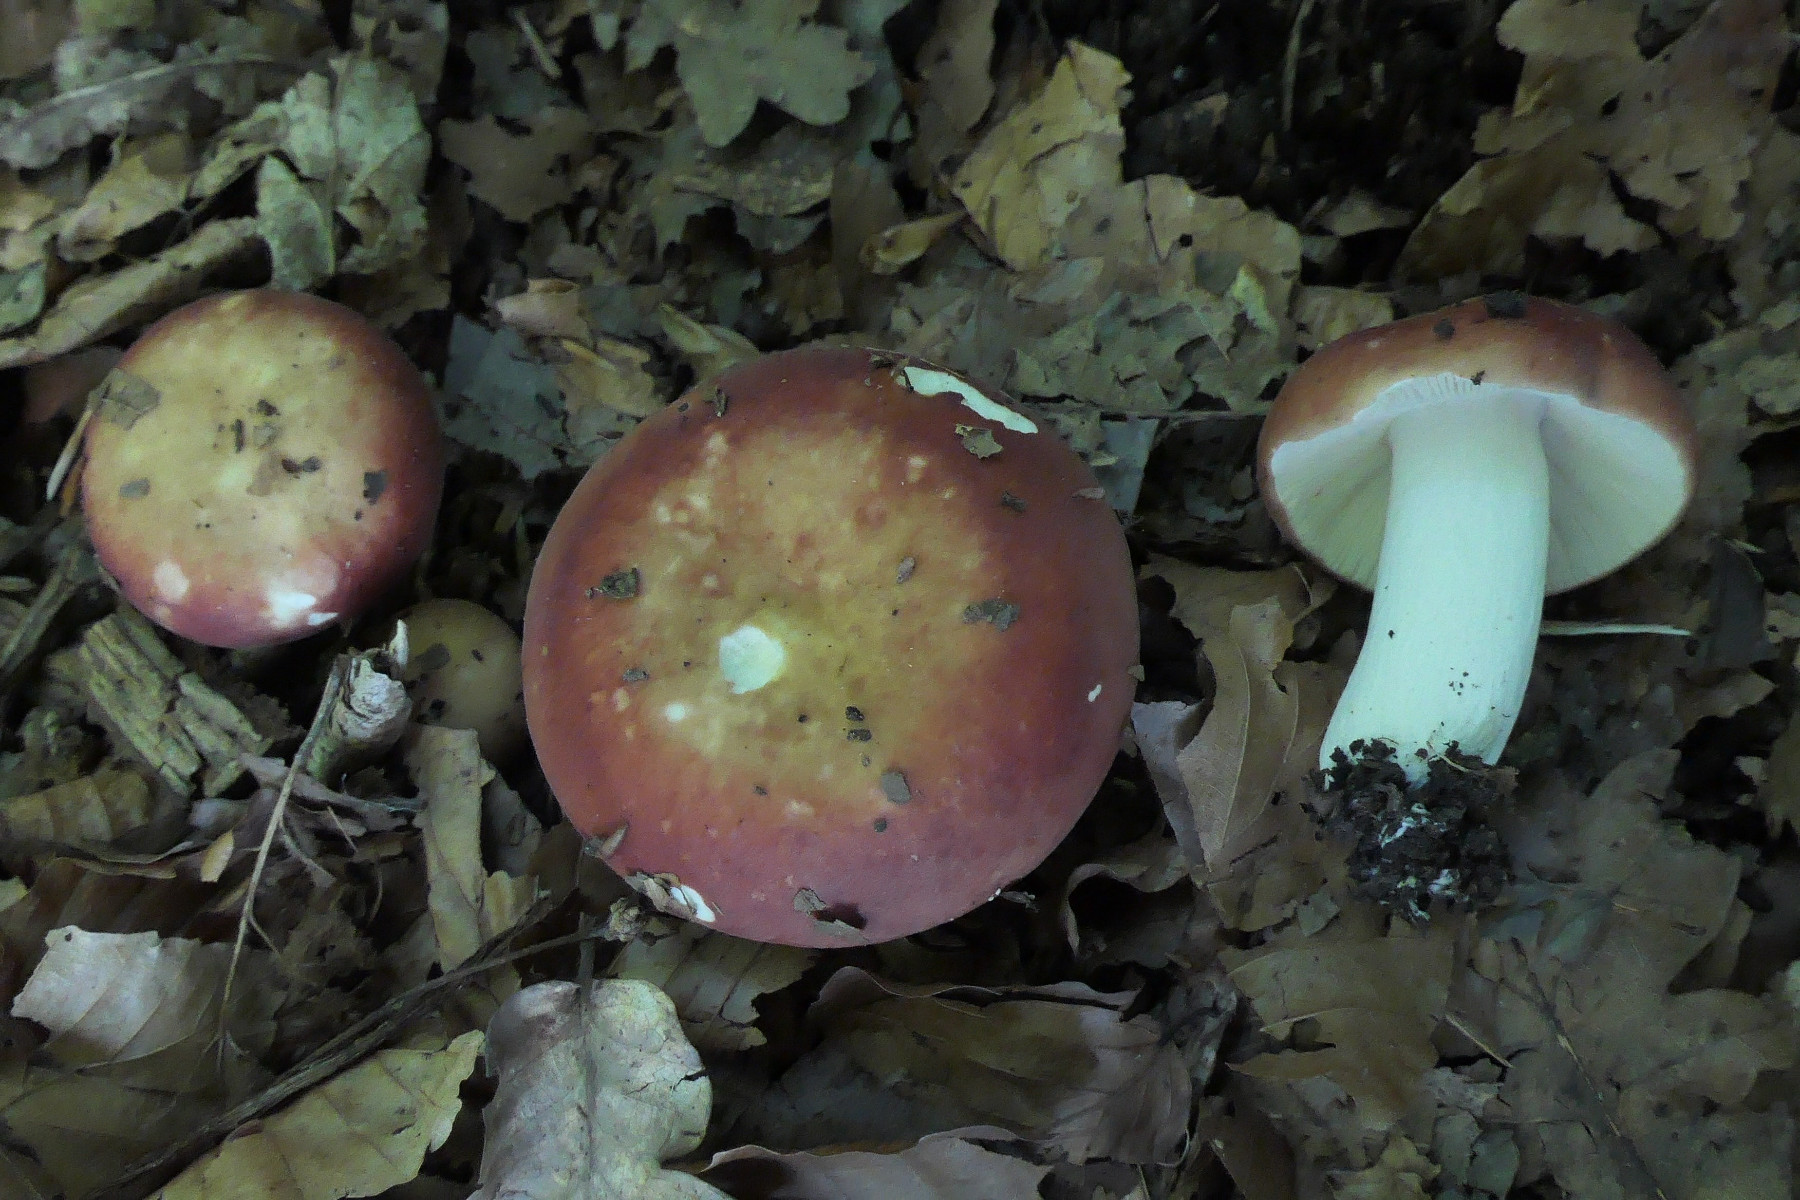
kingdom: Fungi
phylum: Basidiomycota
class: Agaricomycetes
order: Russulales
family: Russulaceae
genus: Russula
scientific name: Russula maculata
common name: plettet skørhat
